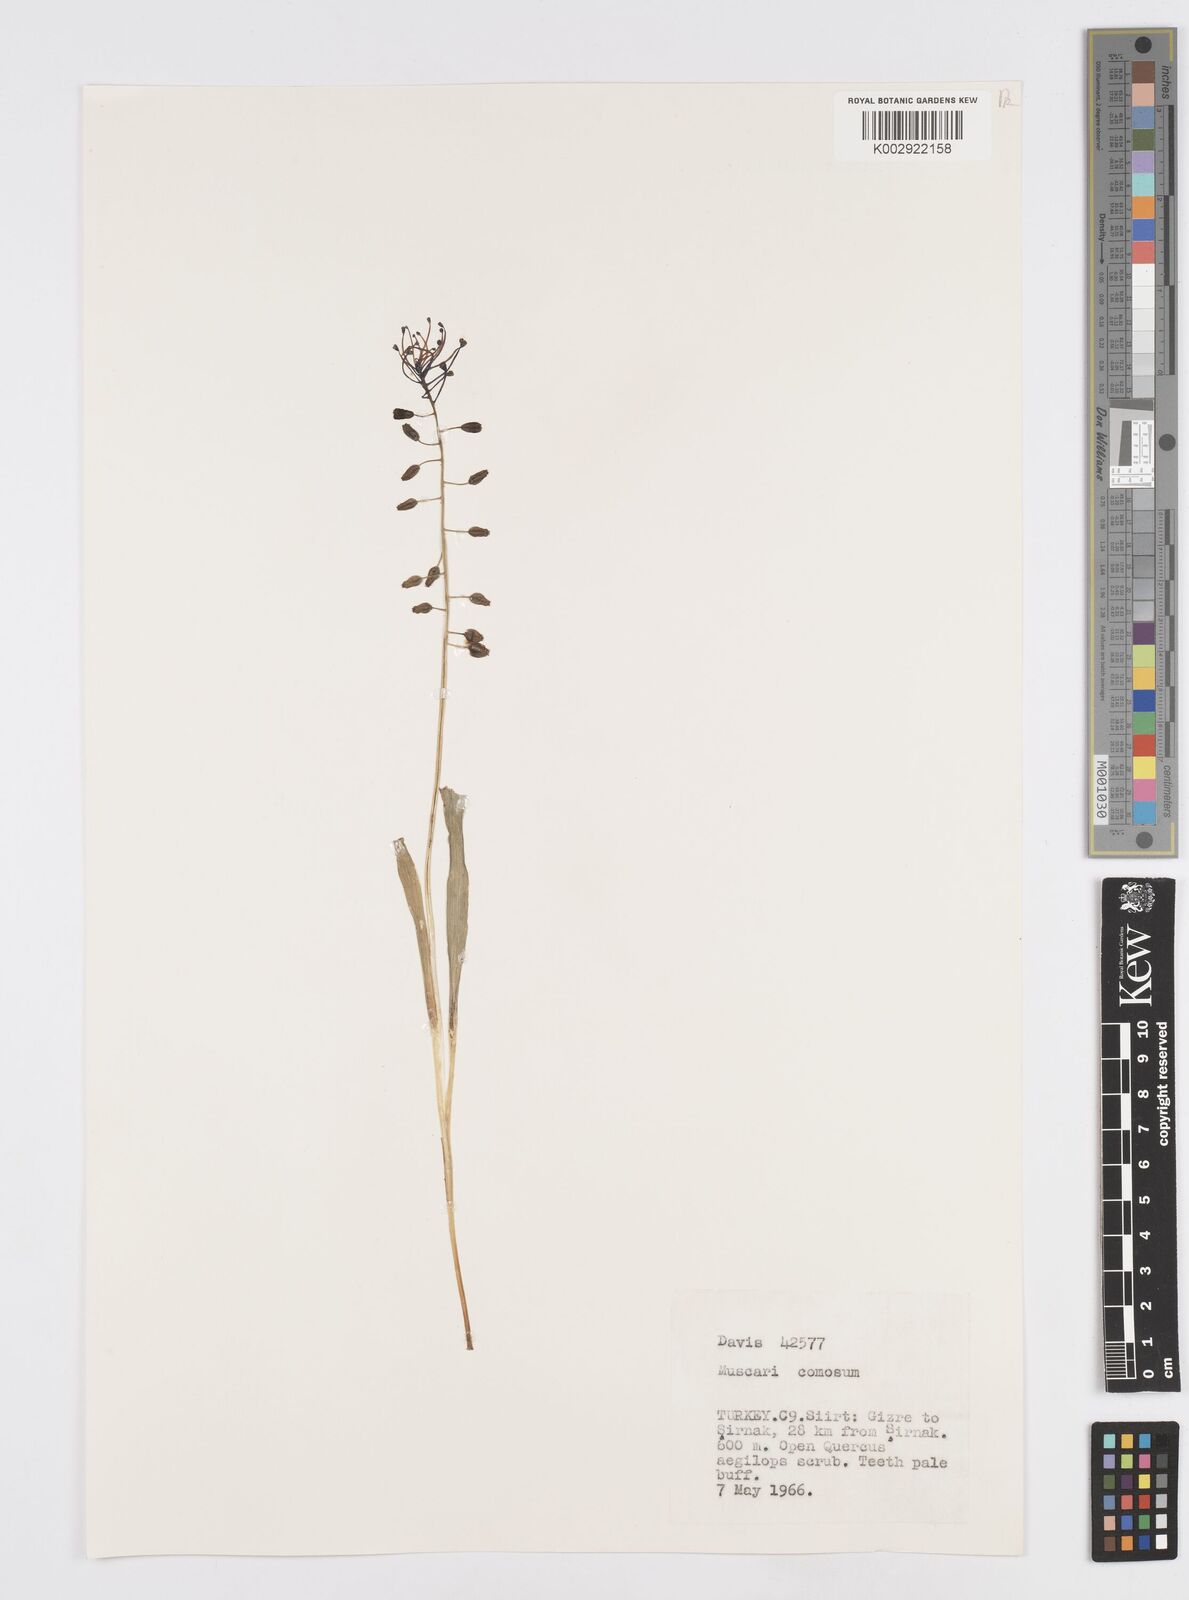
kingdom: Plantae
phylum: Tracheophyta
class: Liliopsida
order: Asparagales
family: Asparagaceae
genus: Muscari
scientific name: Muscari comosum
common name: Tassel hyacinth
